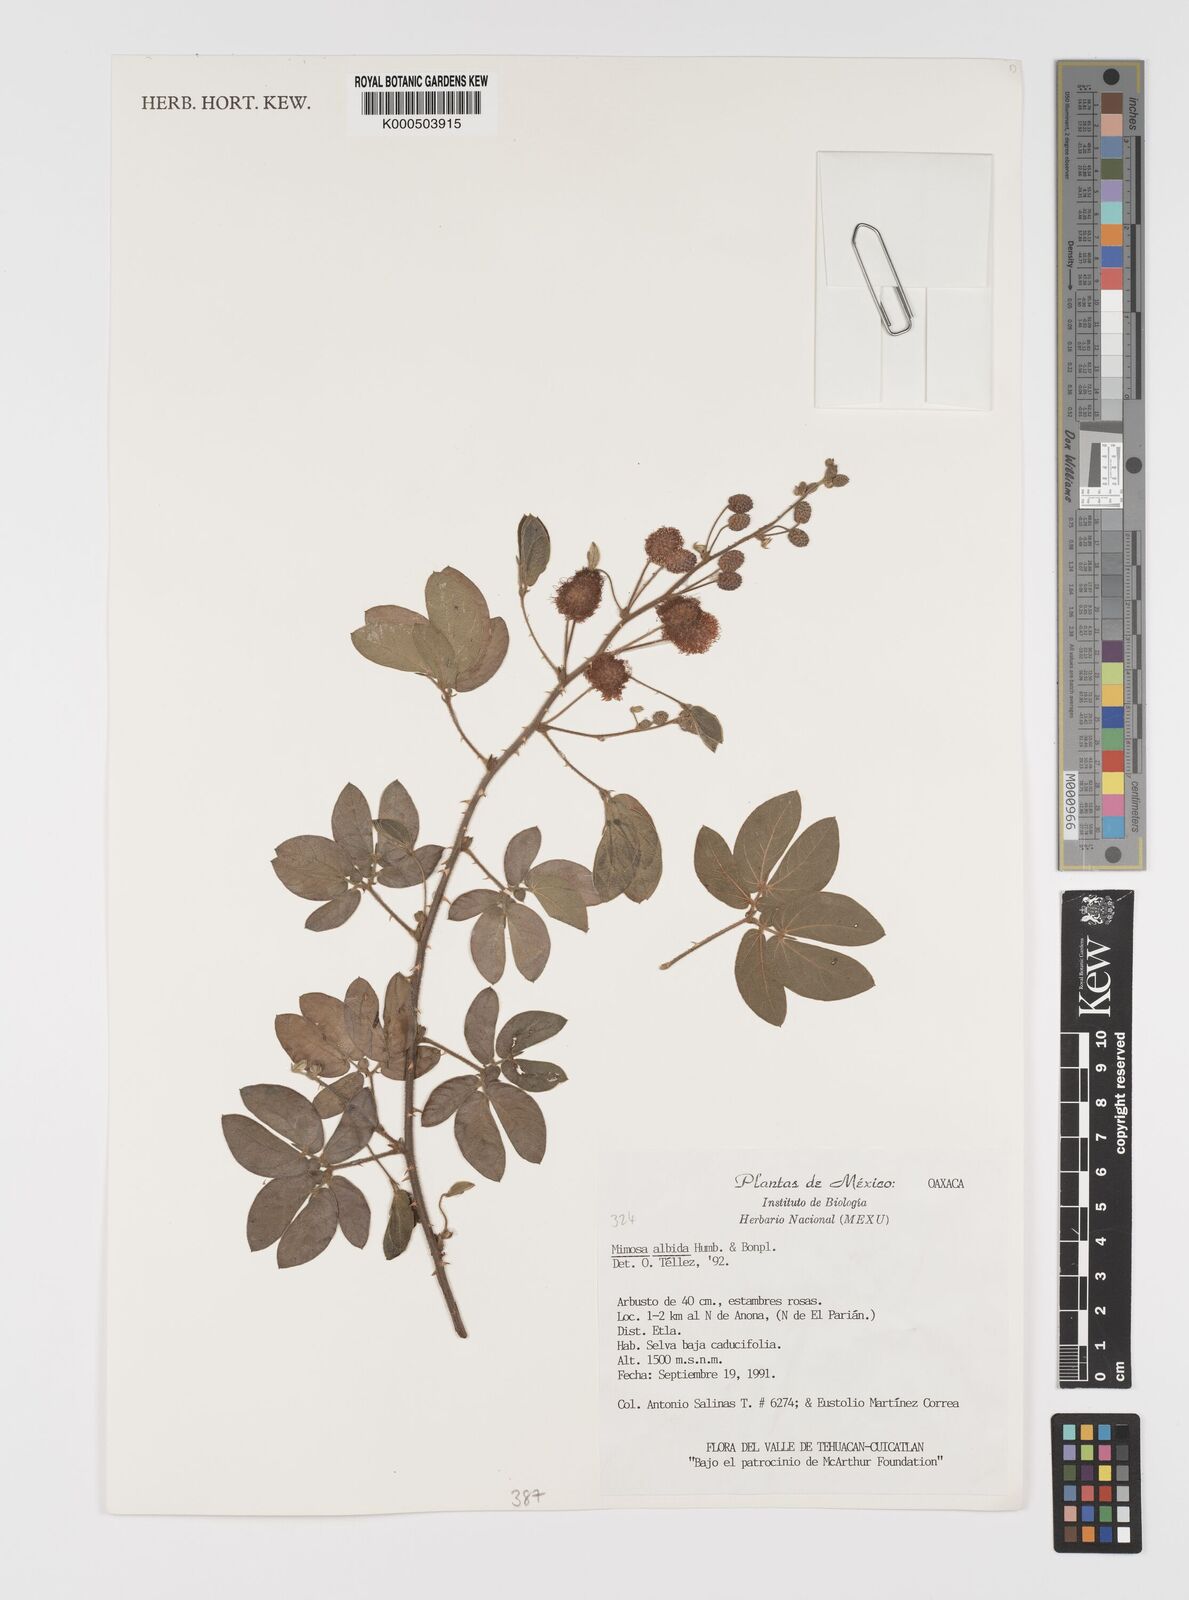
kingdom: Plantae
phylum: Tracheophyta
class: Magnoliopsida
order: Fabales
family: Fabaceae
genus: Mimosa
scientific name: Mimosa albida
